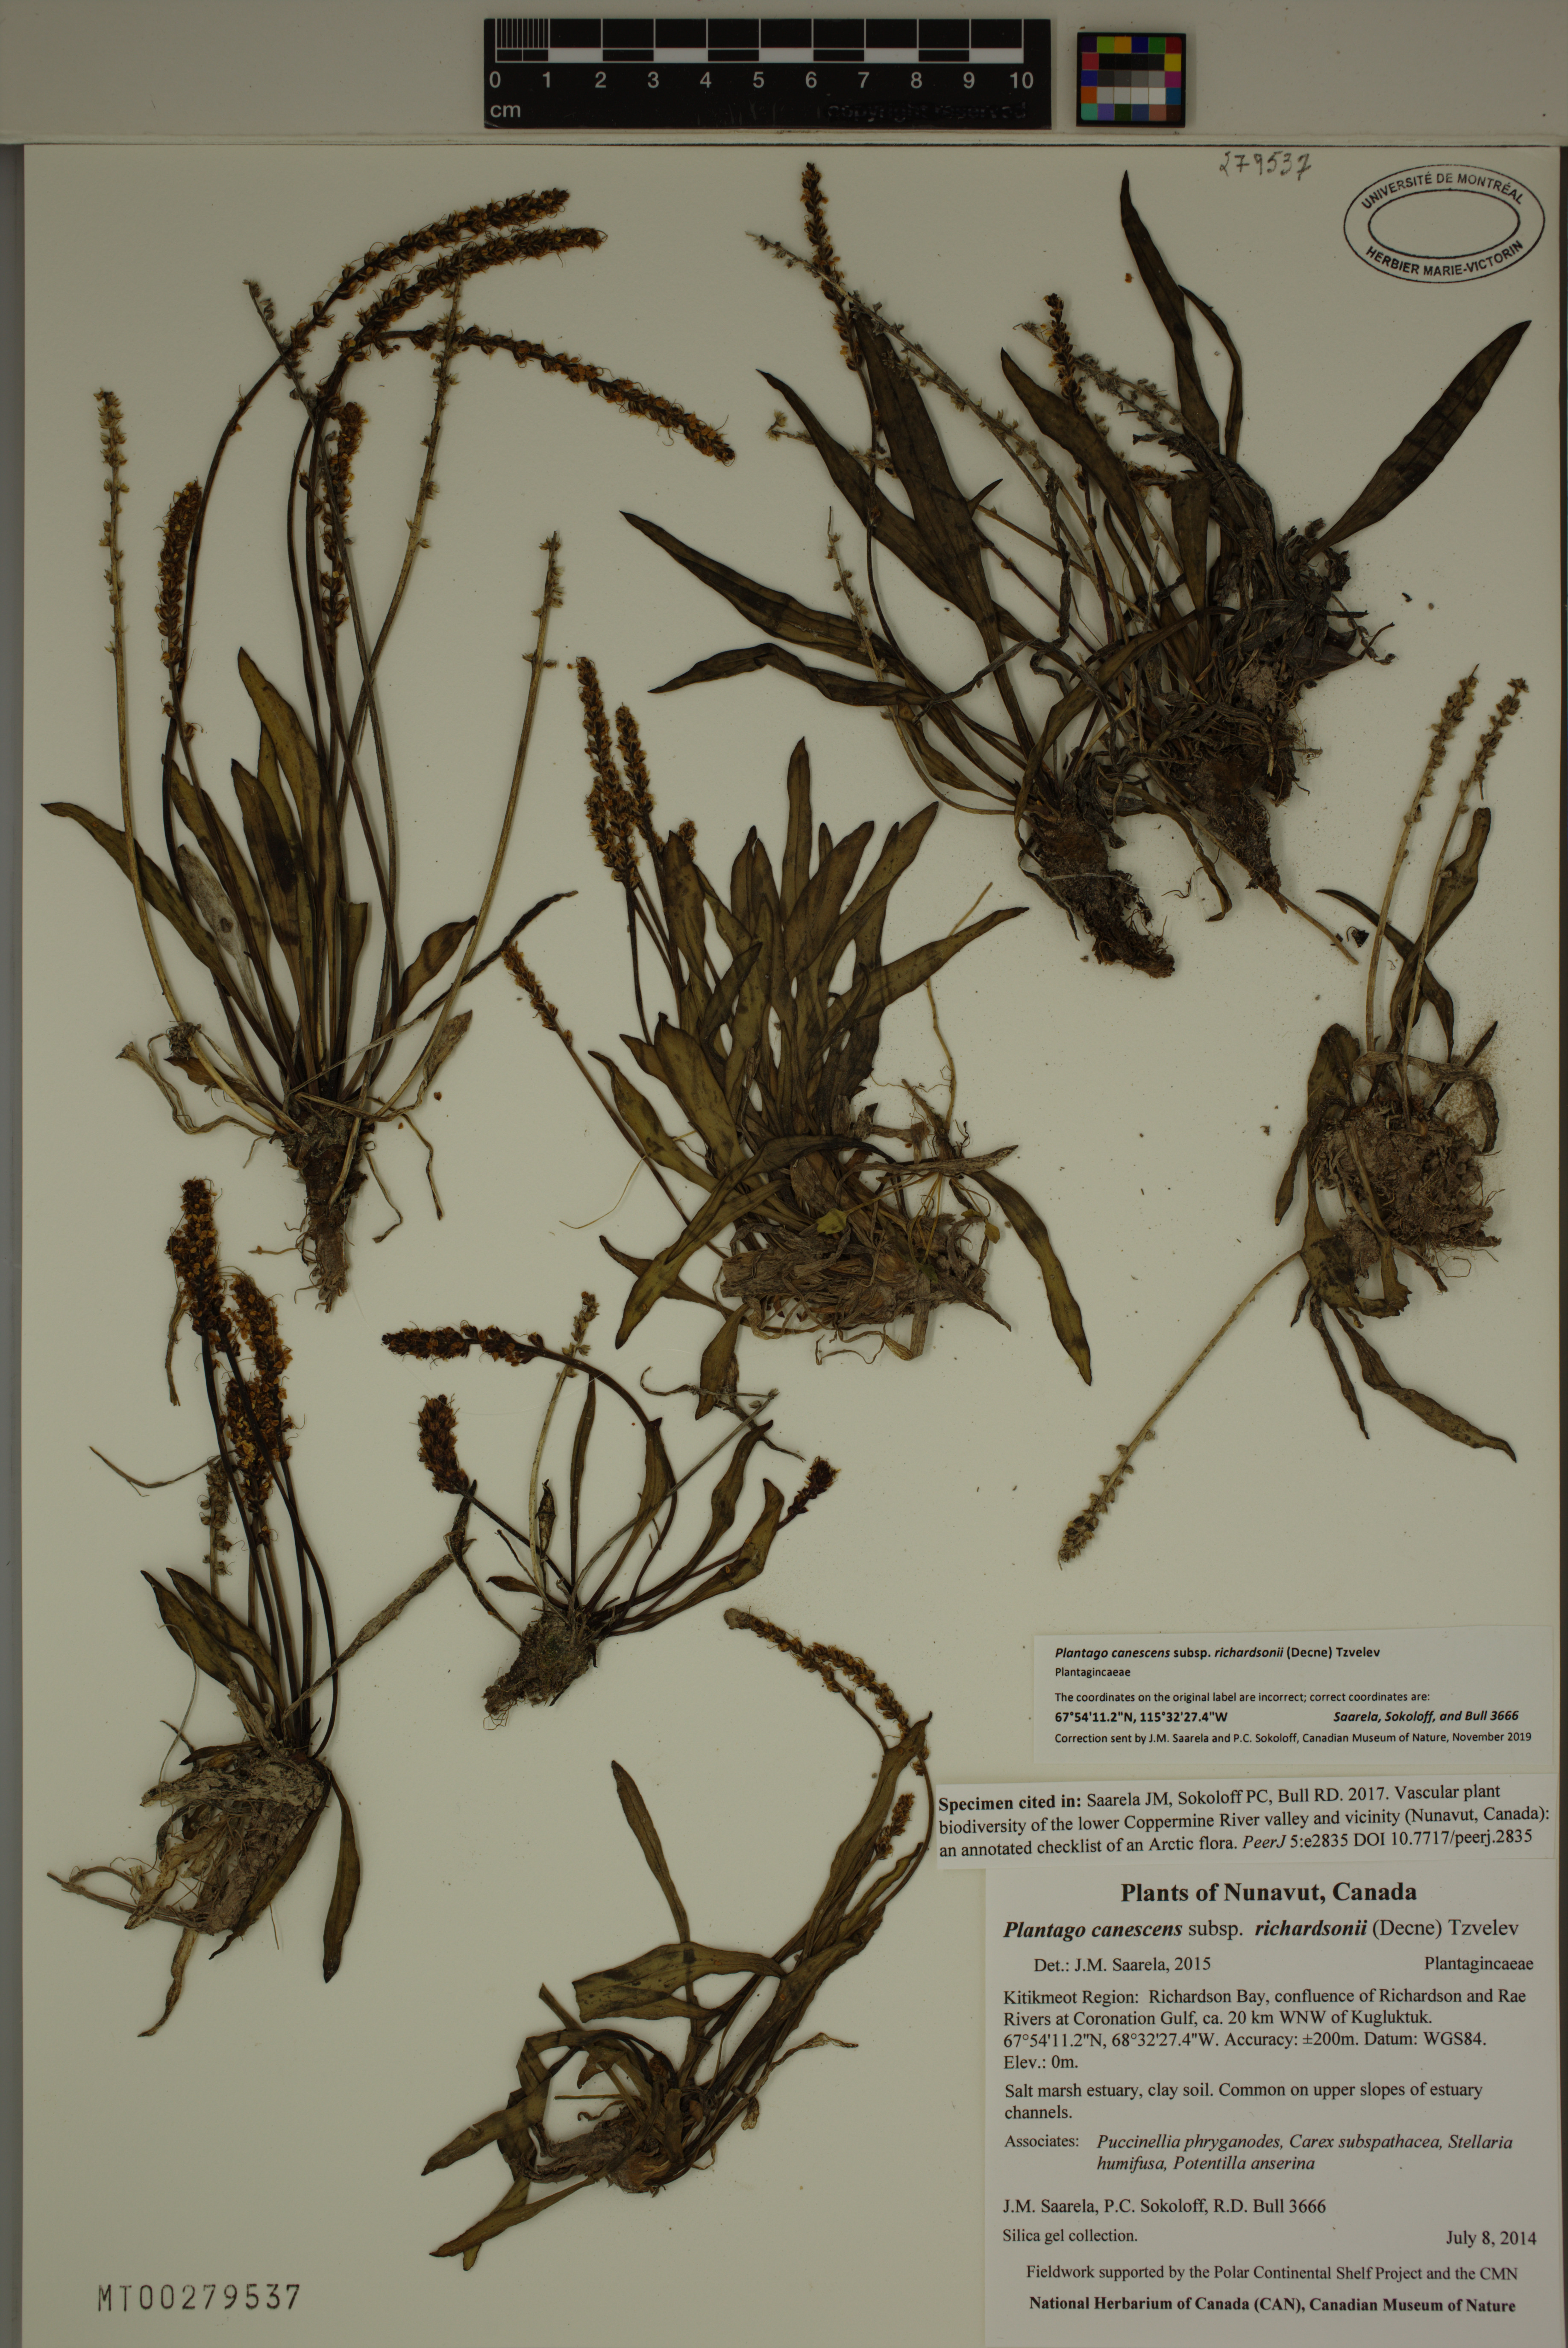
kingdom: Plantae
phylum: Tracheophyta
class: Magnoliopsida
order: Lamiales
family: Plantaginaceae
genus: Plantago
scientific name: Plantago canescens
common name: Siberian plantain
